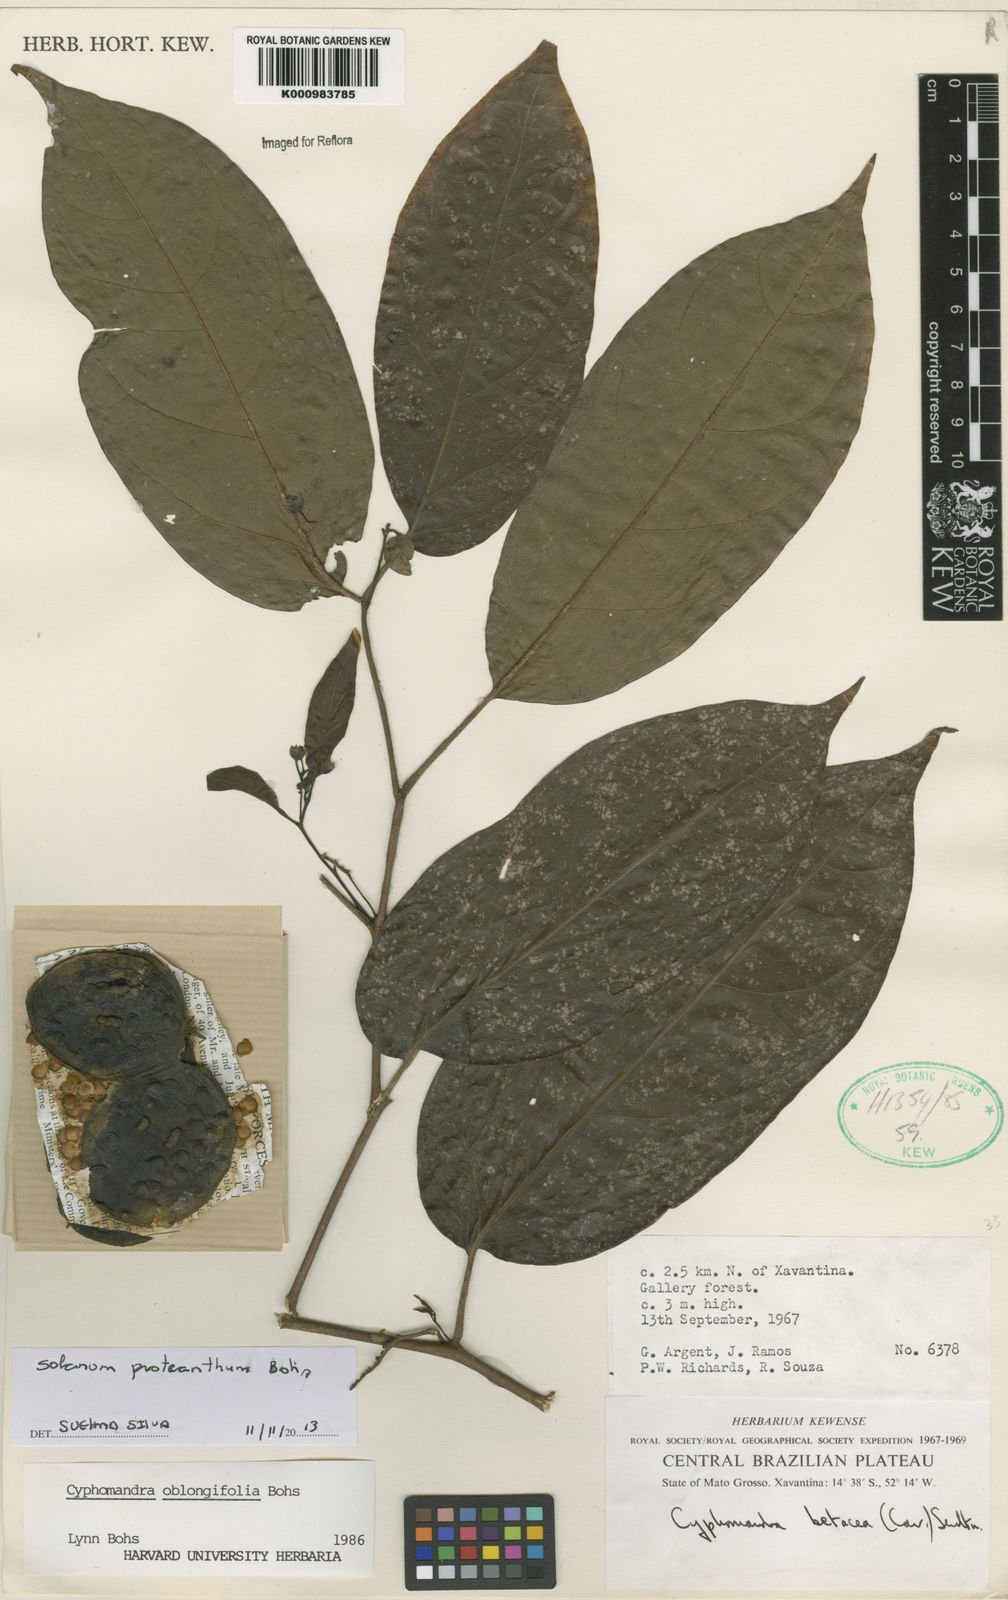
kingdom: Plantae
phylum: Tracheophyta
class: Magnoliopsida
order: Solanales
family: Solanaceae
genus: Solanum
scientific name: Solanum proteanthum
